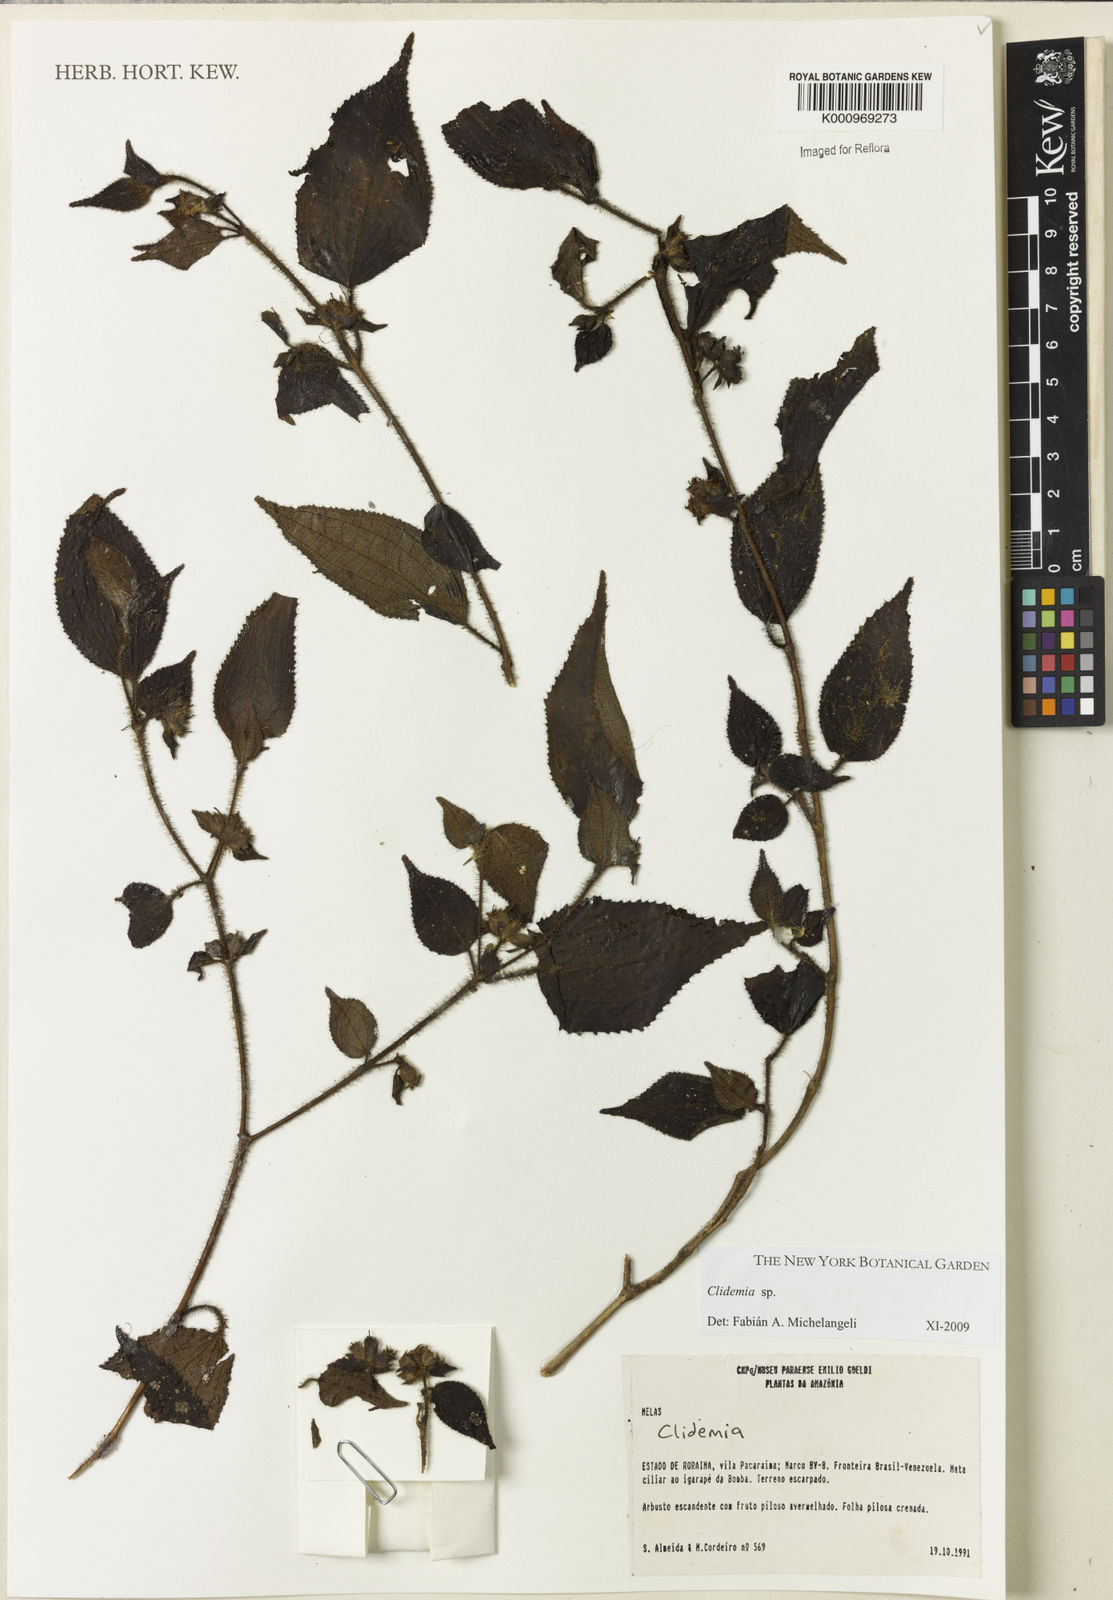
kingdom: Plantae
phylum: Tracheophyta
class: Magnoliopsida
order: Myrtales
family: Melastomataceae
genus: Miconia
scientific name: Miconia
